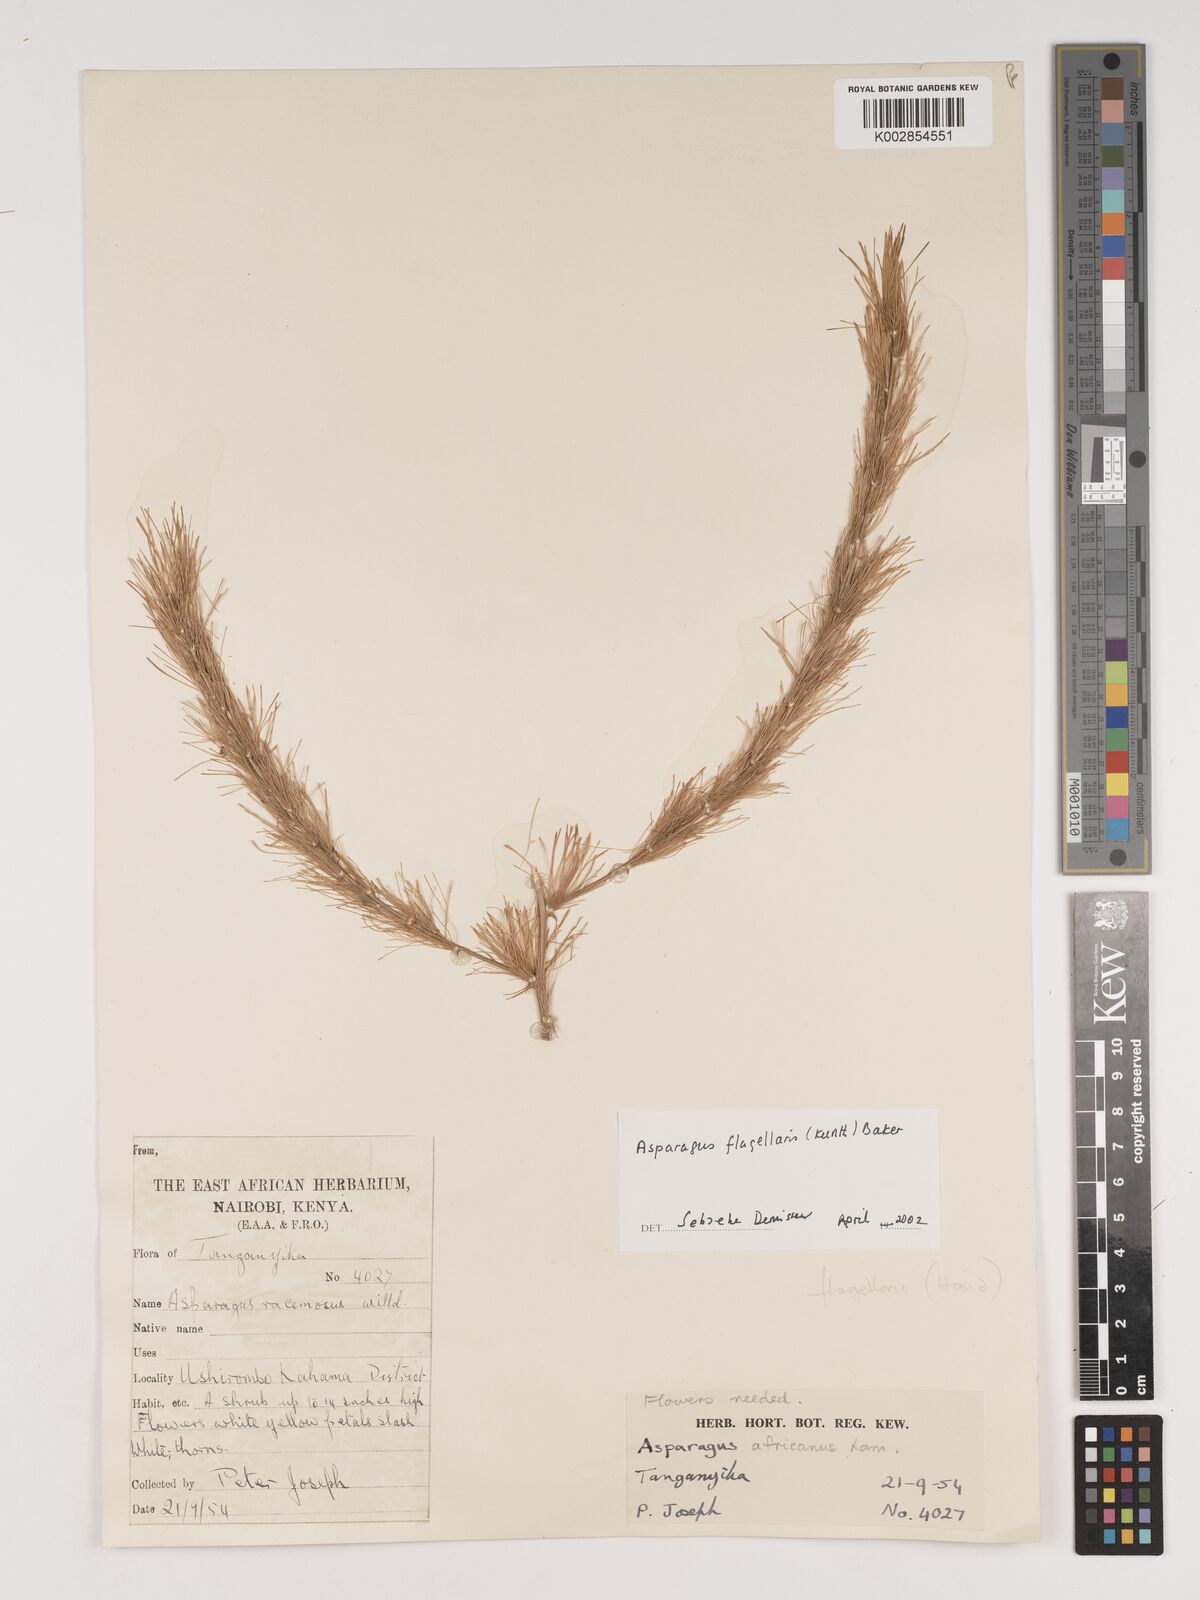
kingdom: Plantae
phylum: Tracheophyta
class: Liliopsida
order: Asparagales
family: Asparagaceae
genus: Asparagus
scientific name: Asparagus flagellaris
